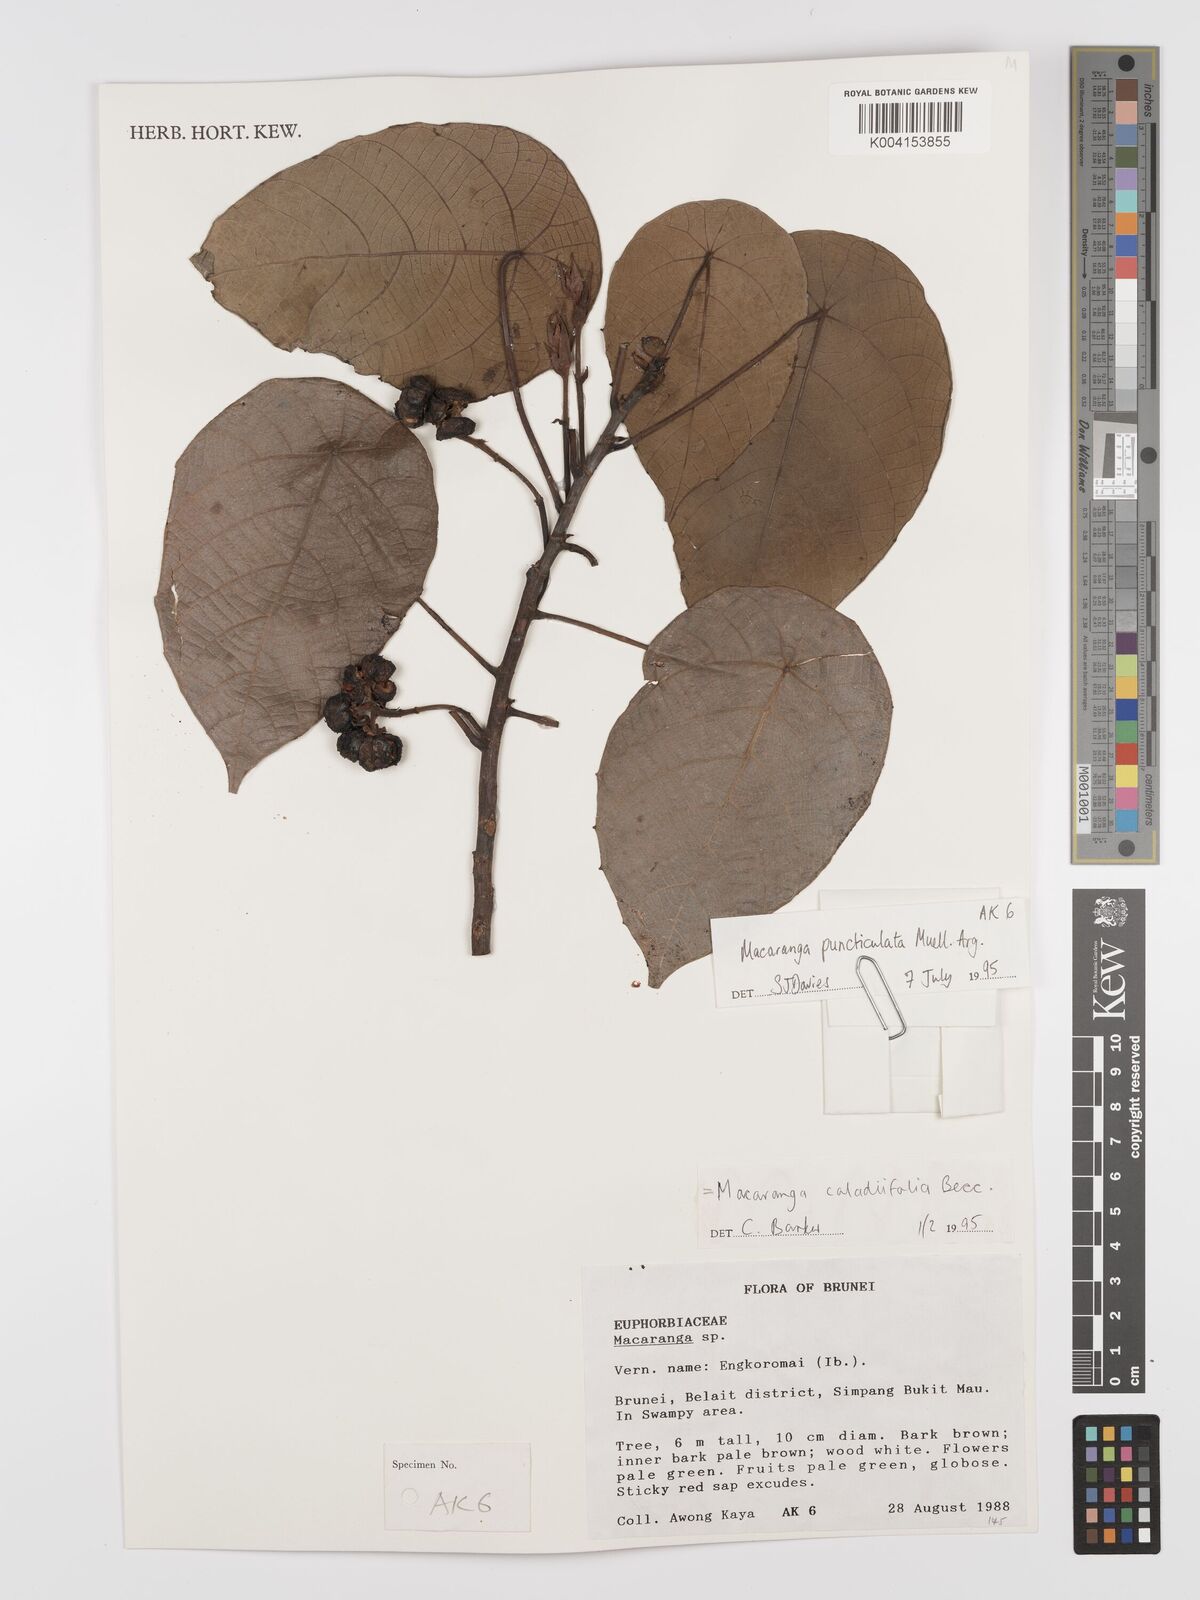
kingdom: Plantae
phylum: Tracheophyta
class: Magnoliopsida
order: Malpighiales
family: Euphorbiaceae
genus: Macaranga
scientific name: Macaranga caladiifolia
